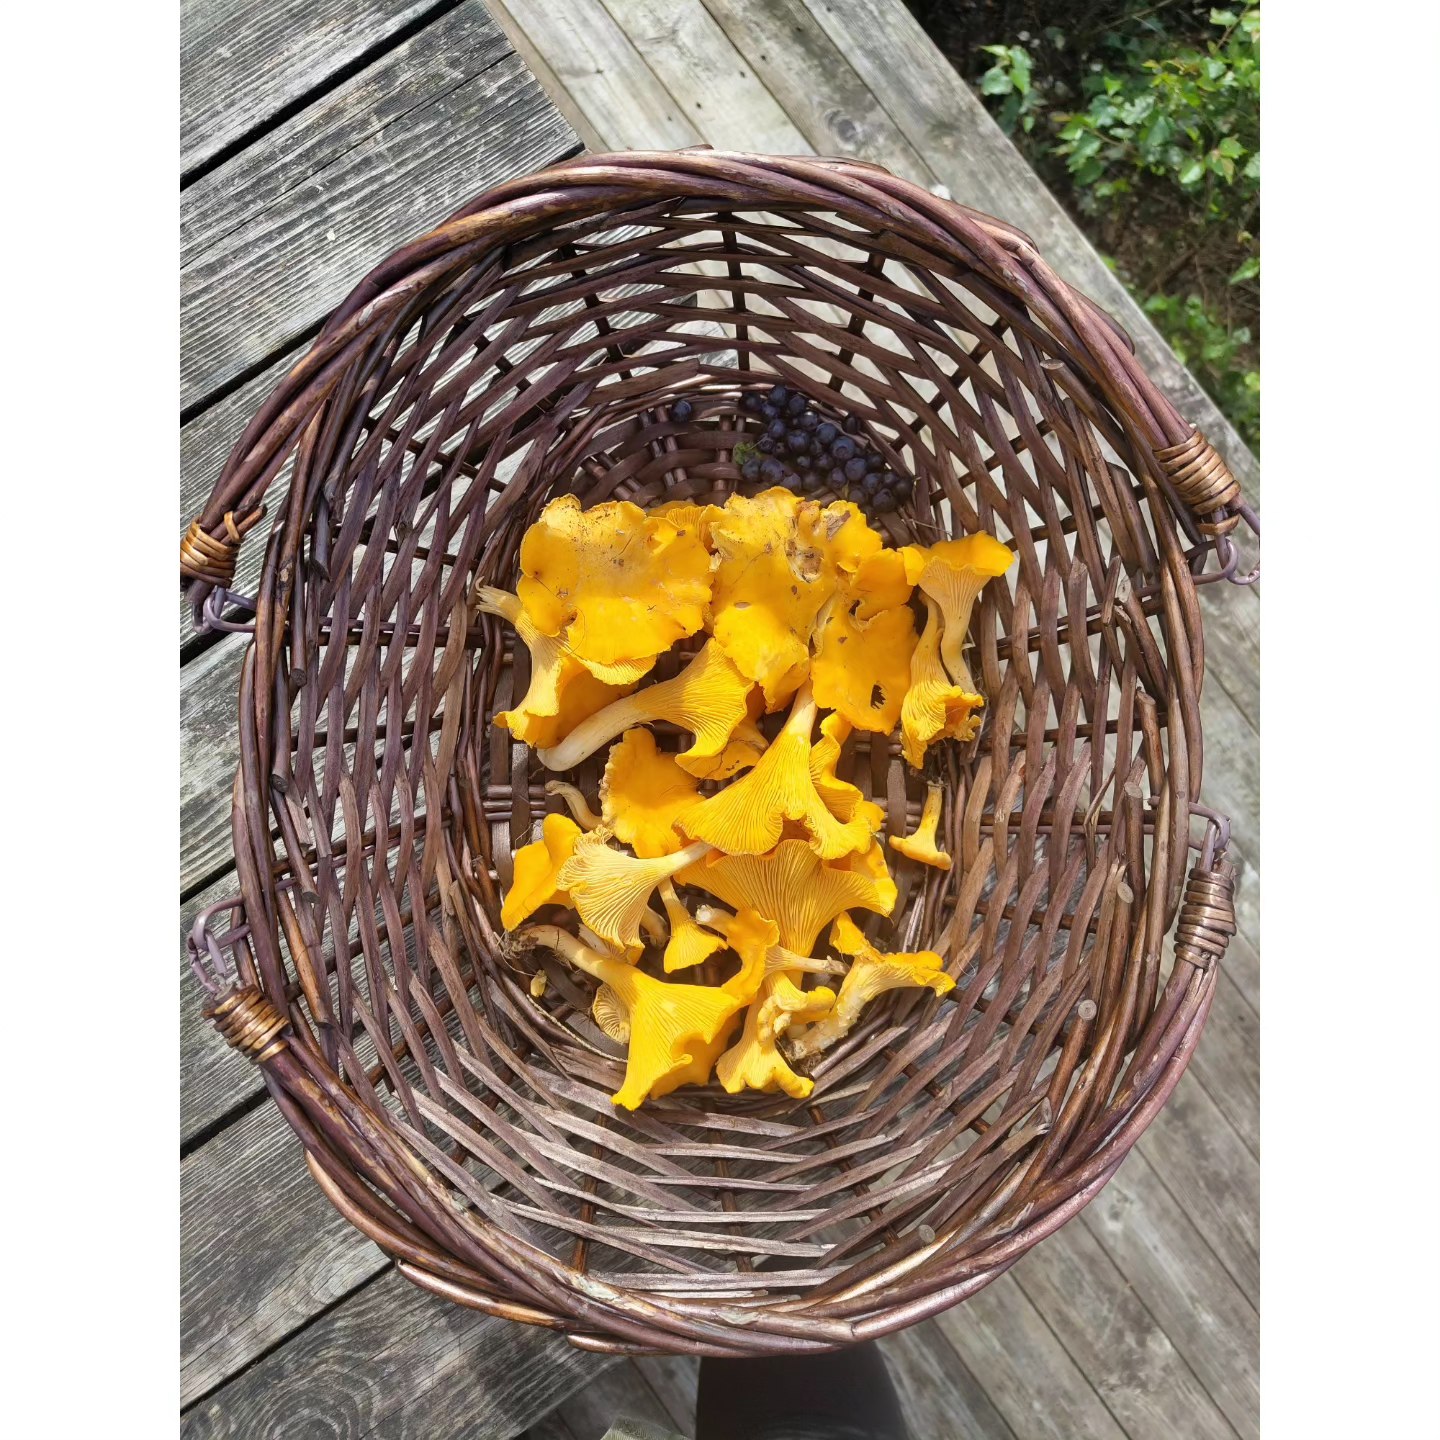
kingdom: Fungi
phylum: Basidiomycota
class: Agaricomycetes
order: Cantharellales
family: Hydnaceae
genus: Cantharellus
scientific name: Cantharellus cibarius
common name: almindelig kantarel
